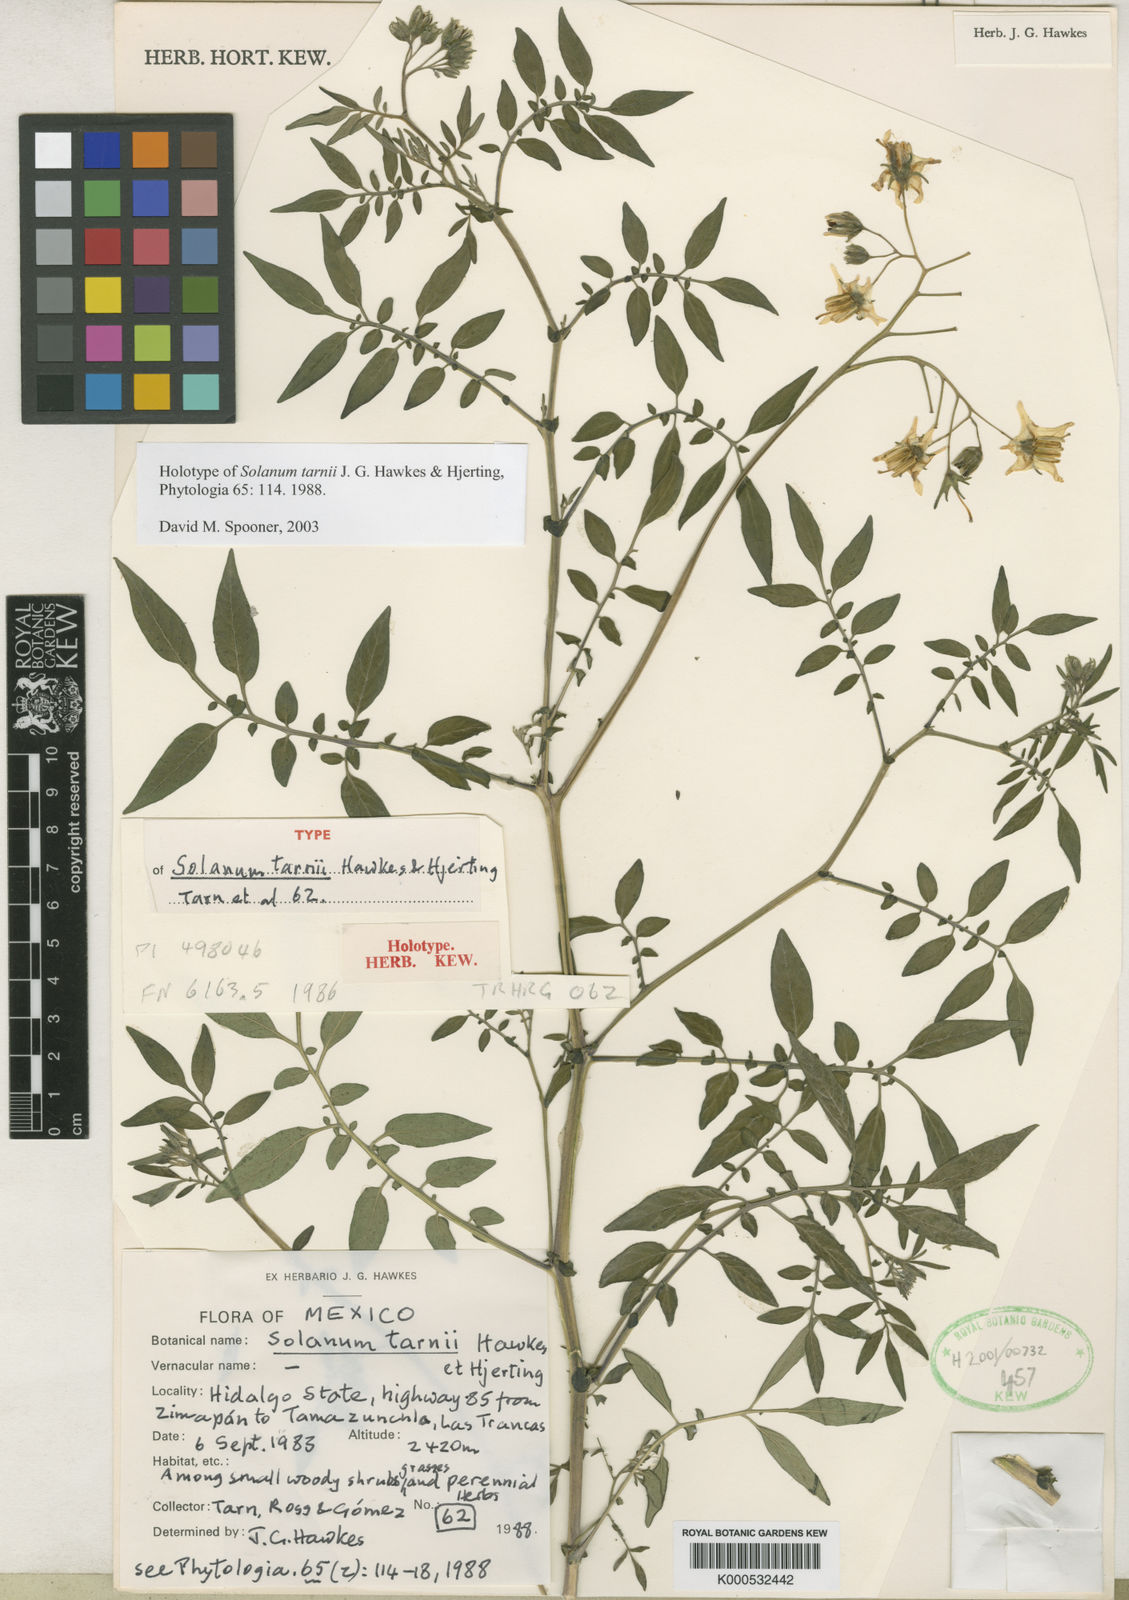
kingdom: Plantae
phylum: Tracheophyta
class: Magnoliopsida
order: Solanales
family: Solanaceae
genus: Solanum
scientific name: Solanum tarnii
